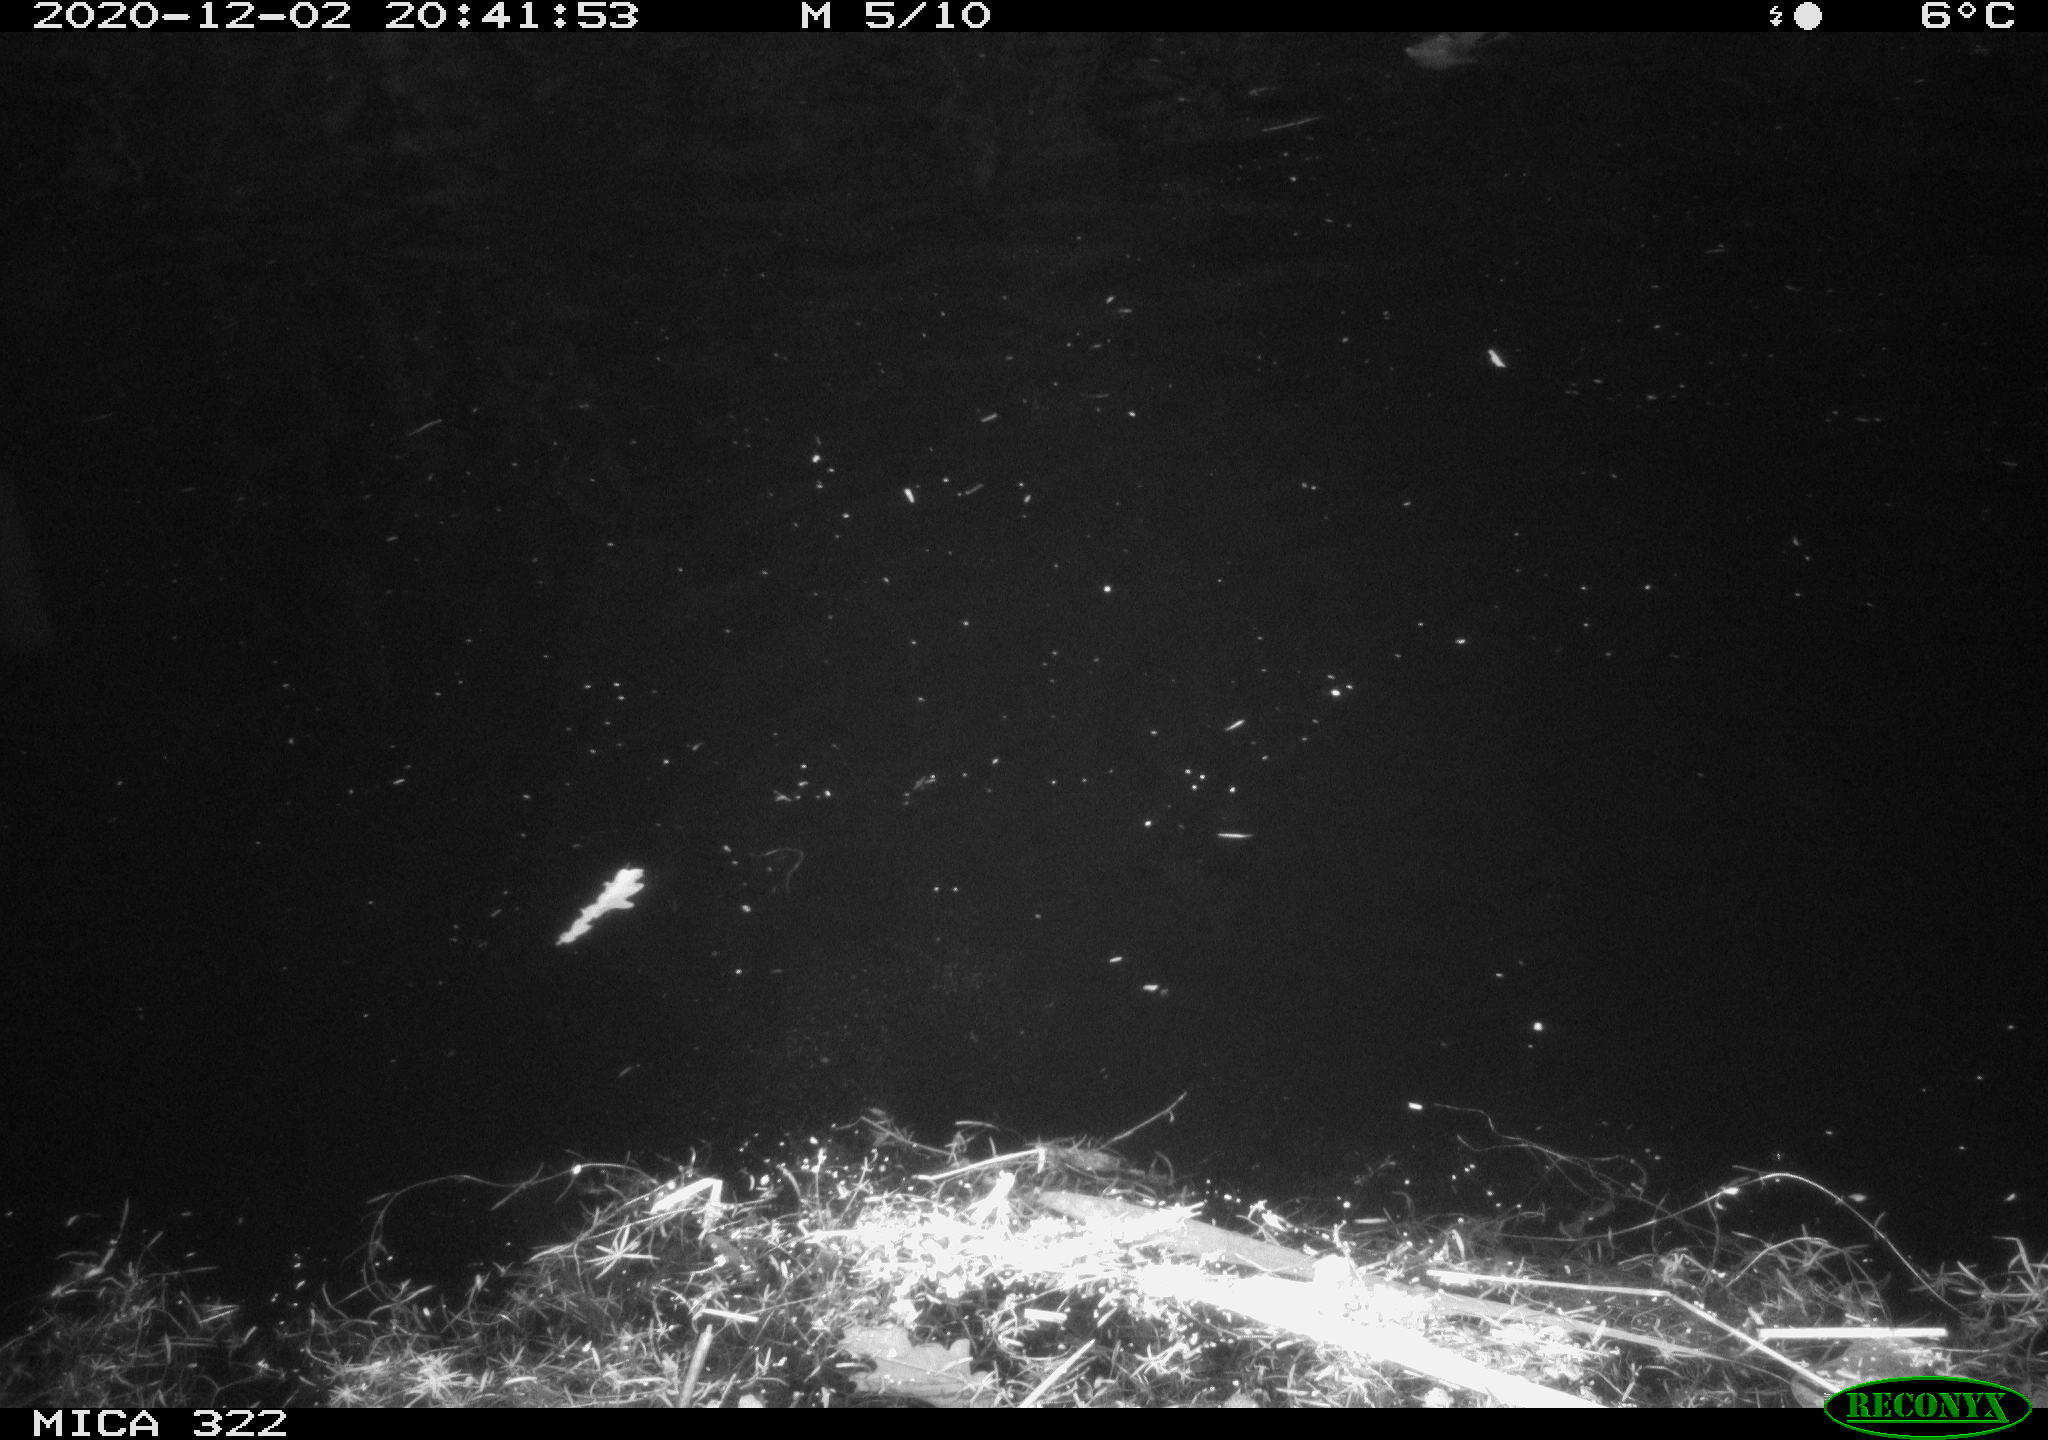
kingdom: Animalia
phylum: Chordata
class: Aves
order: Anseriformes
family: Anatidae
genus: Anas
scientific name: Anas platyrhynchos
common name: Mallard
